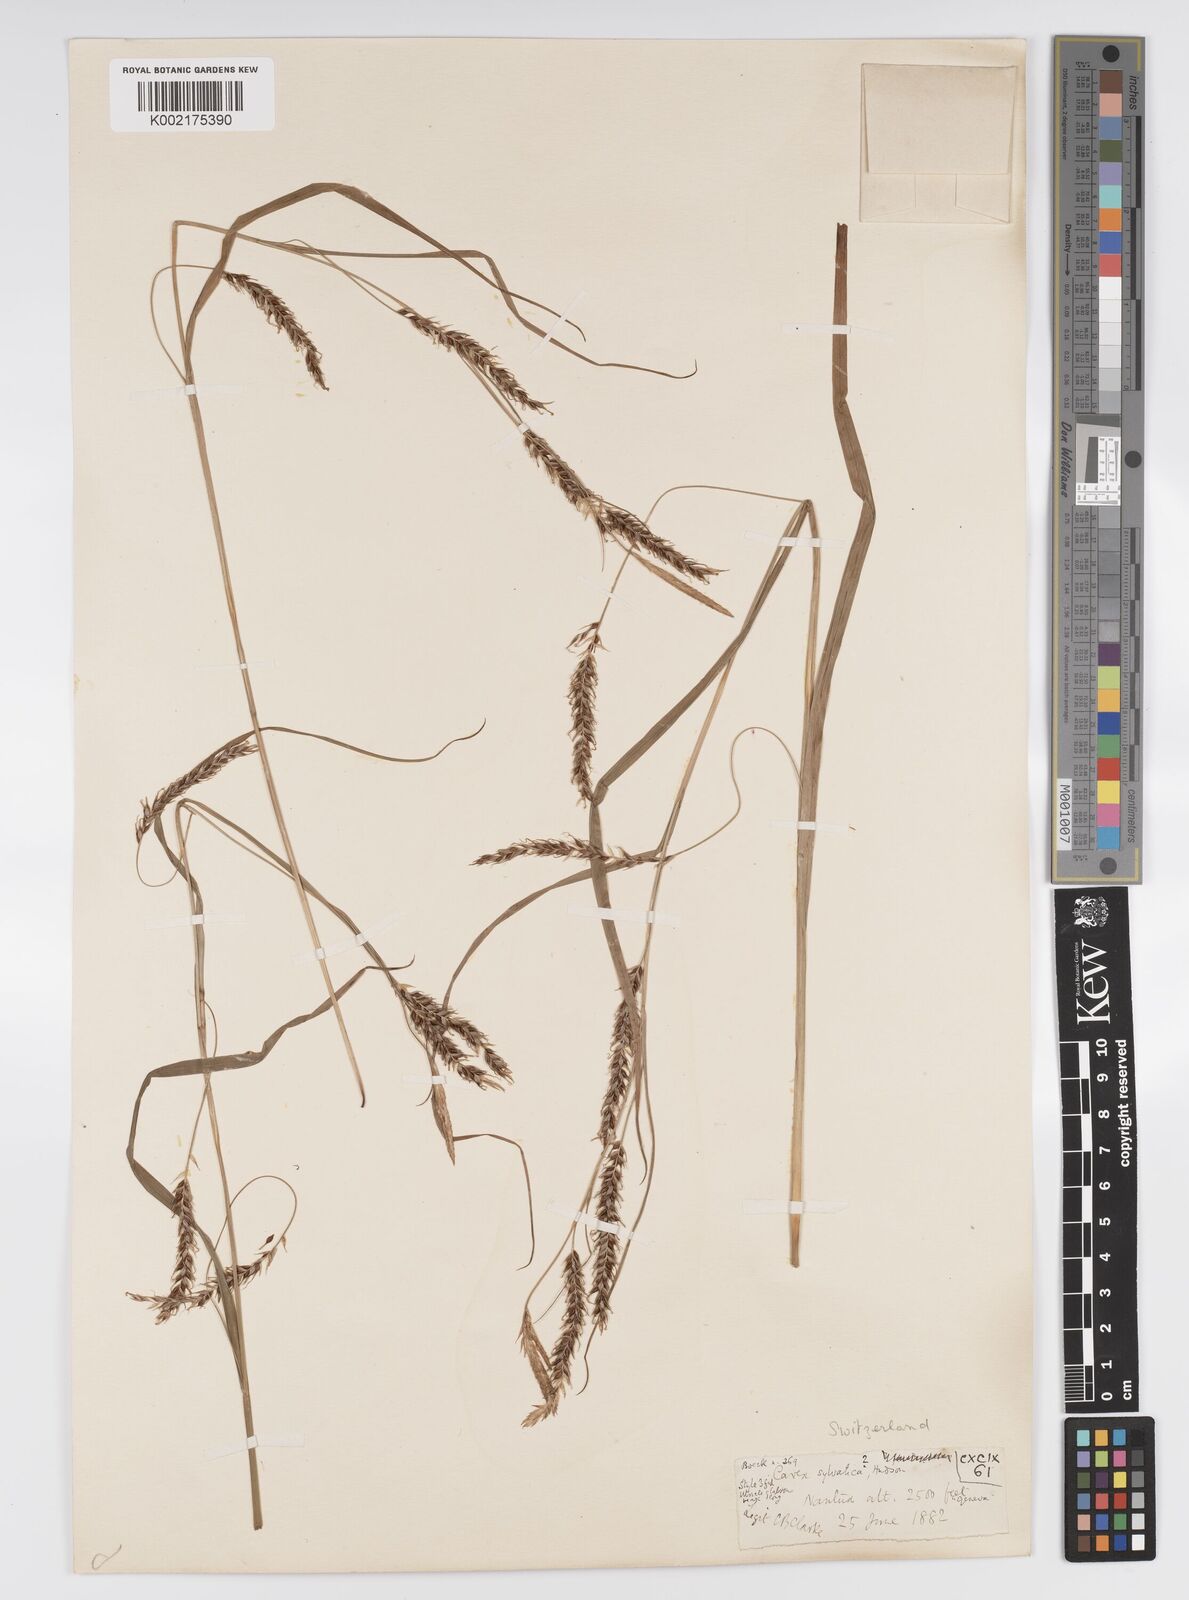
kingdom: Plantae
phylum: Tracheophyta
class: Liliopsida
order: Poales
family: Cyperaceae
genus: Carex
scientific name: Carex sylvatica
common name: Wood-sedge
